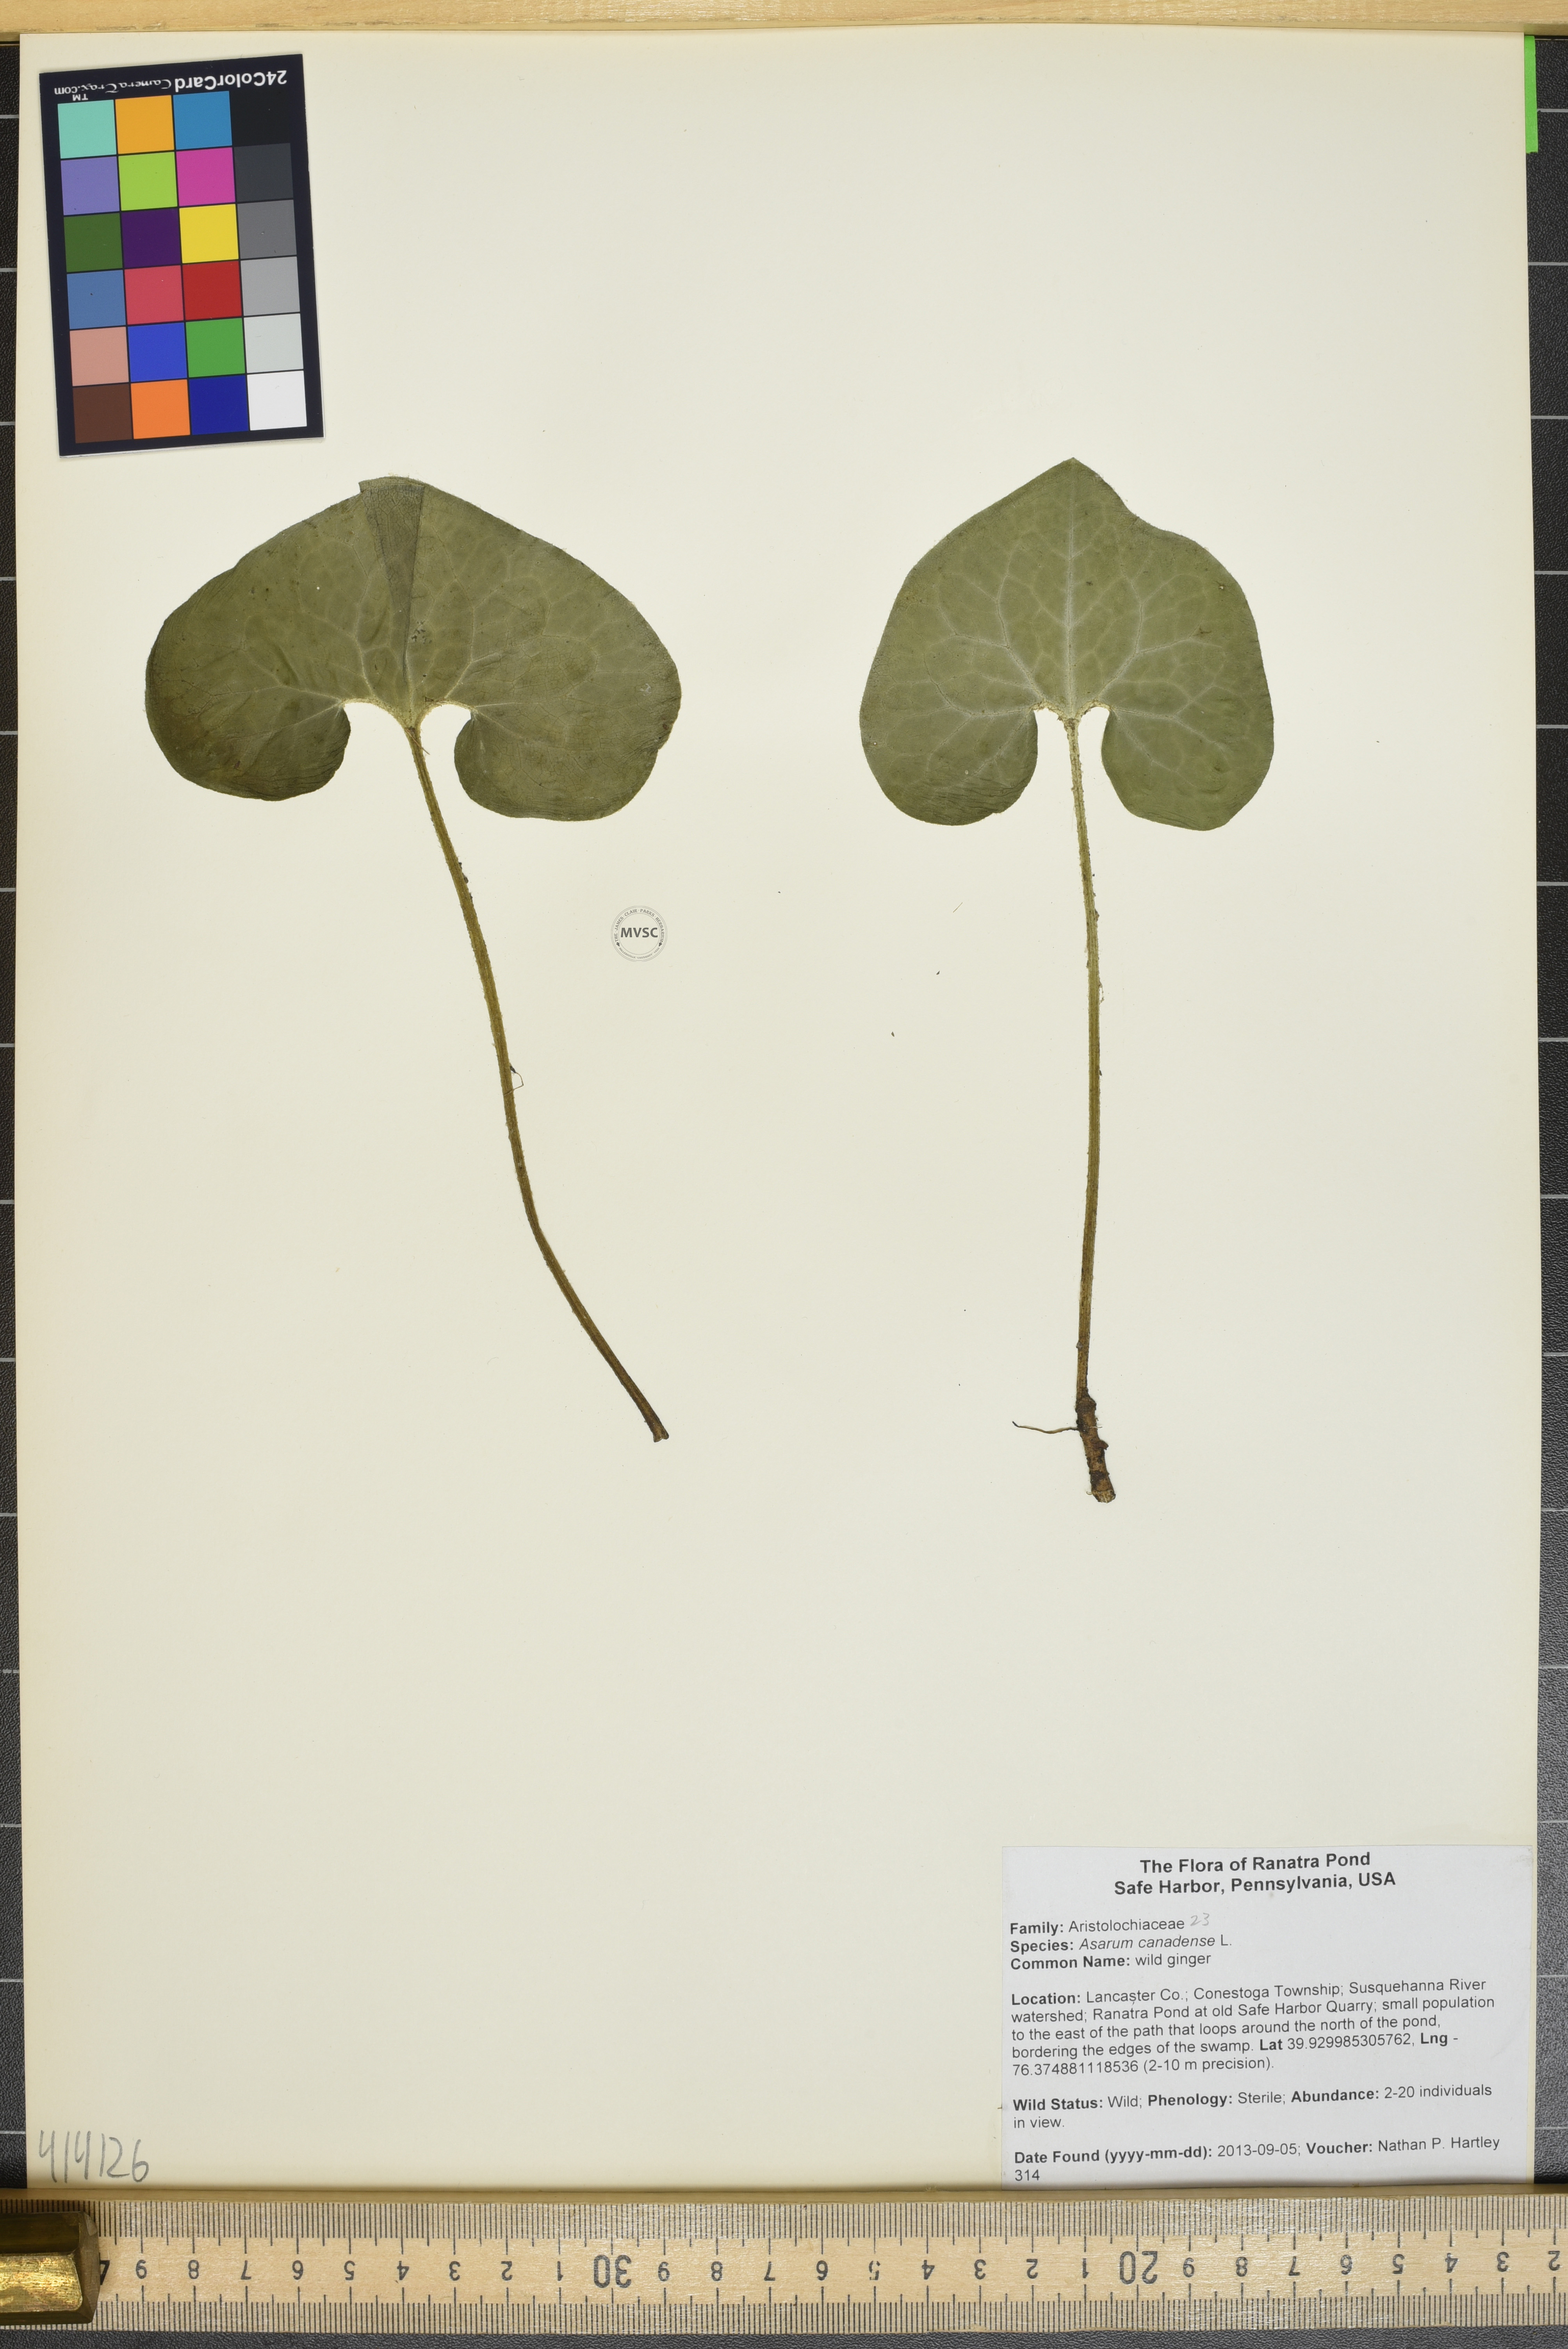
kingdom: Plantae
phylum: Tracheophyta
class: Magnoliopsida
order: Piperales
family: Aristolochiaceae
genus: Asarum
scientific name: Asarum canadense
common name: wild ginger
